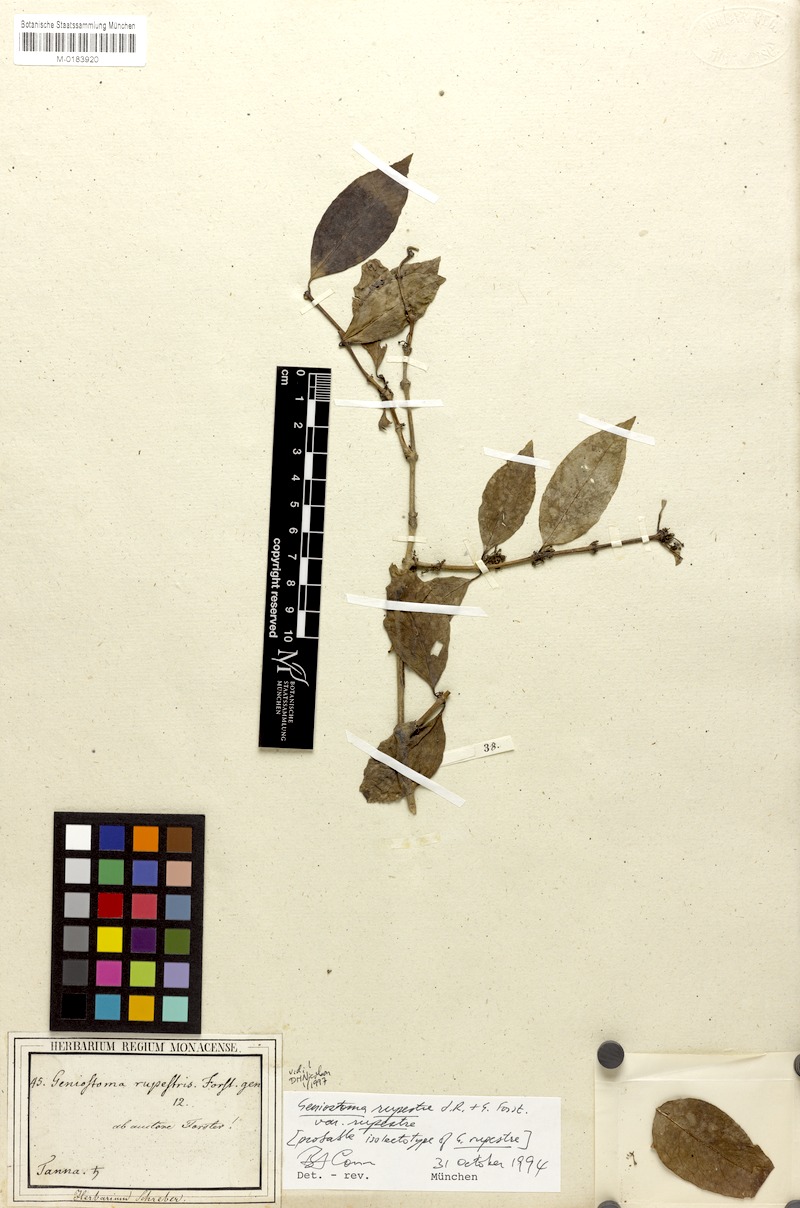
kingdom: Plantae
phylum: Tracheophyta
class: Magnoliopsida
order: Gentianales
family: Loganiaceae
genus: Geniostoma
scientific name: Geniostoma rupestre
